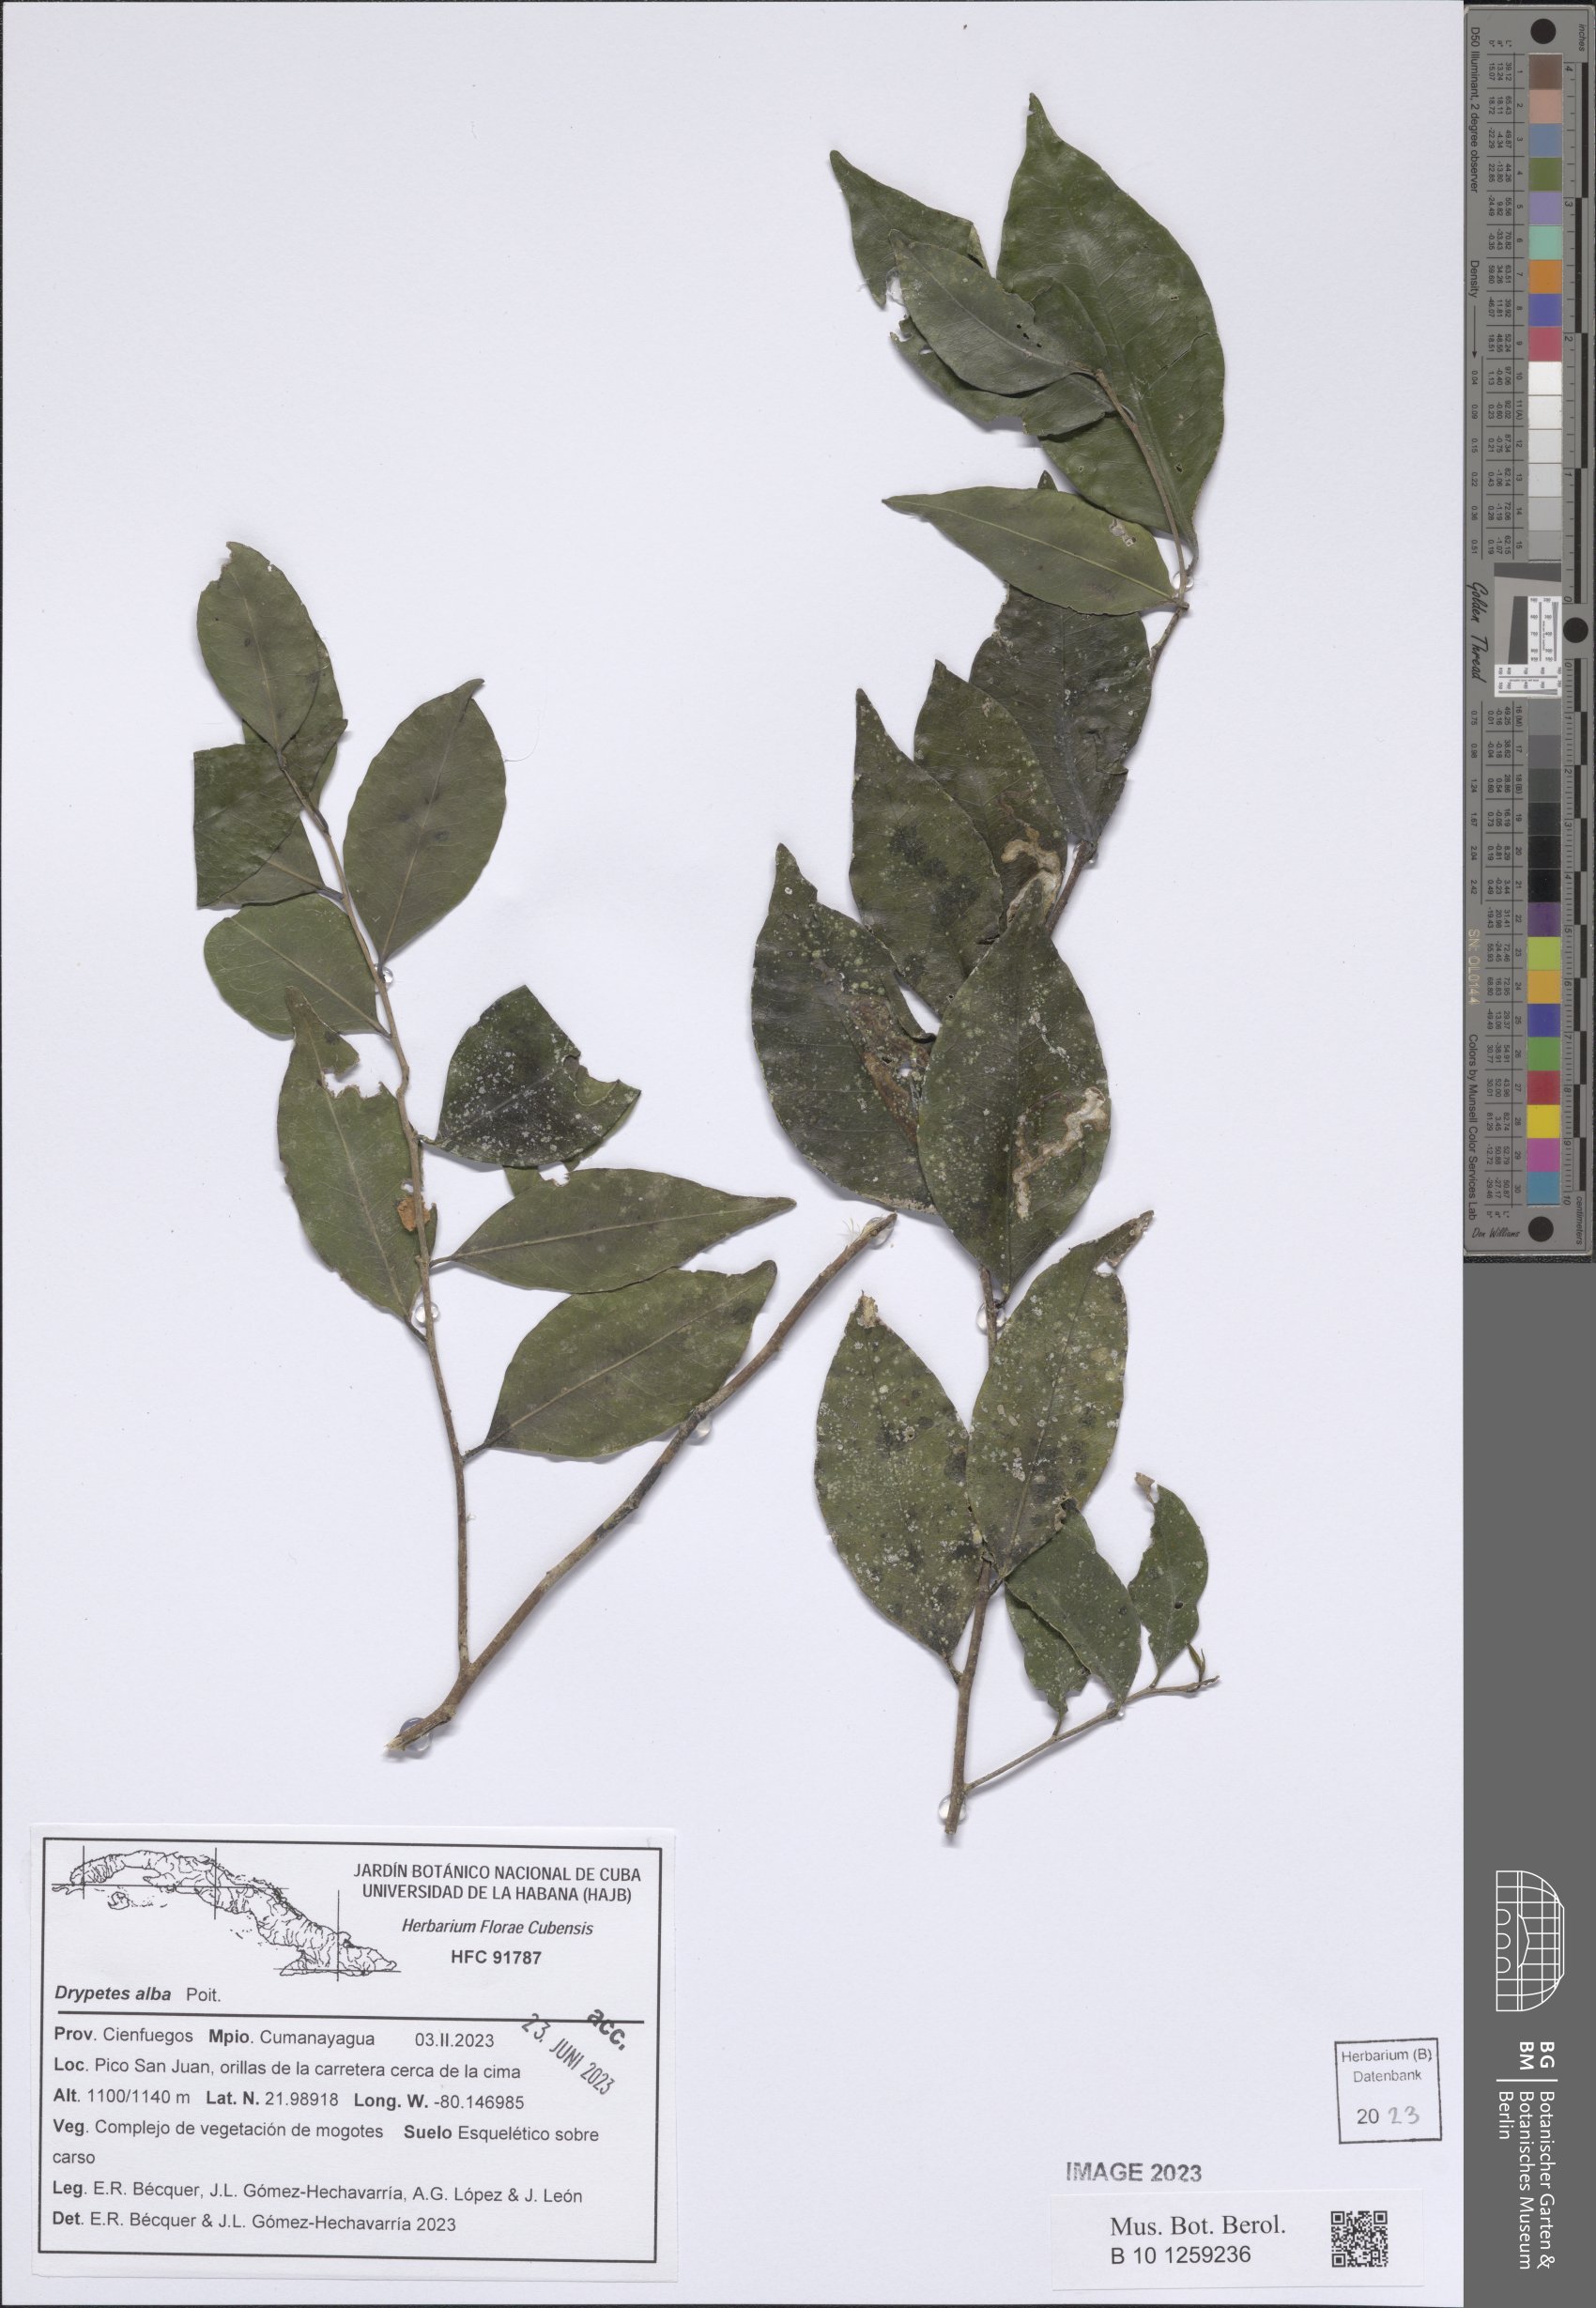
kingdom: Plantae
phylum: Tracheophyta
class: Magnoliopsida
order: Malpighiales
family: Putranjivaceae
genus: Drypetes
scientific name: Drypetes alba
